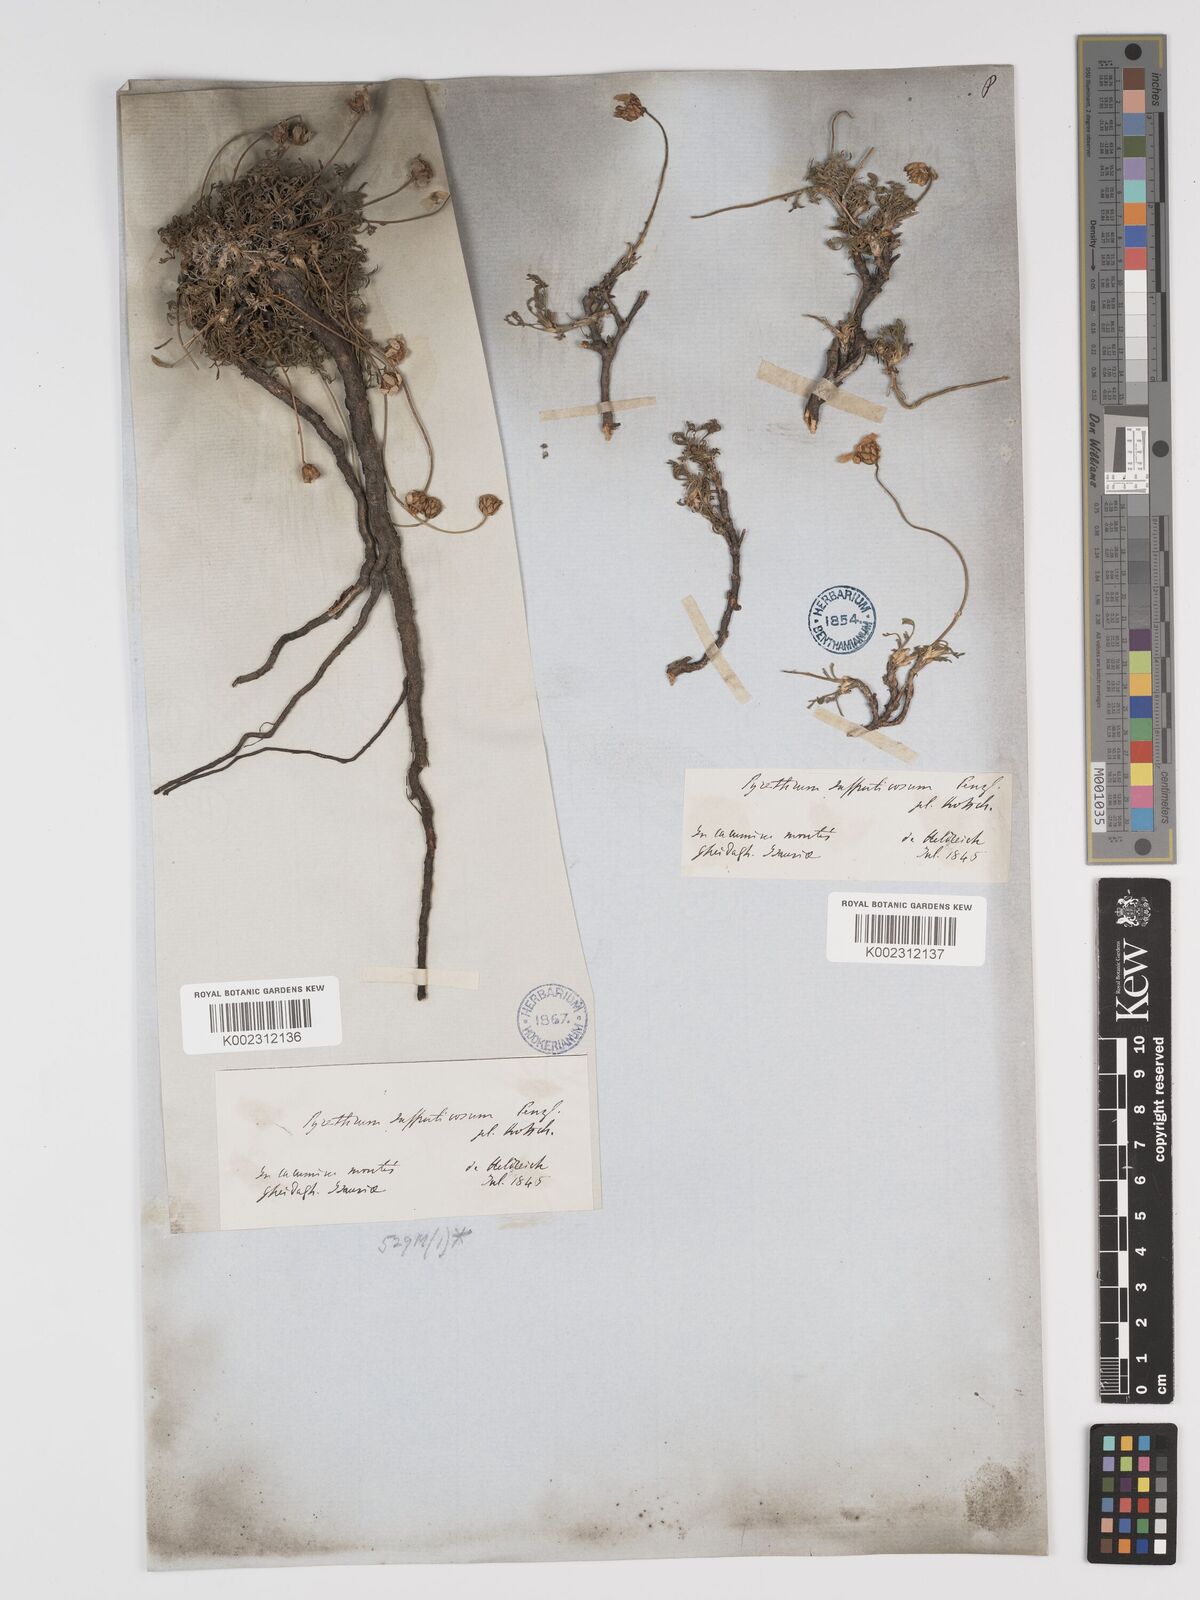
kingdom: Plantae
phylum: Tracheophyta
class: Magnoliopsida
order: Asterales
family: Asteraceae
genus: Ajania
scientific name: Ajania fruticulosa
